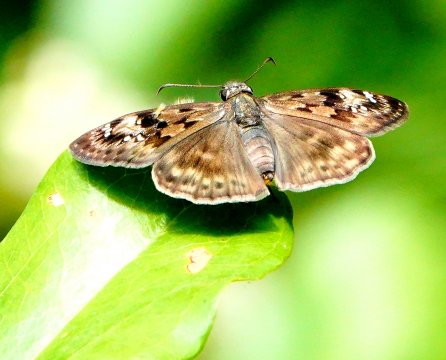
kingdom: Animalia
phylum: Arthropoda
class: Insecta
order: Lepidoptera
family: Hesperiidae
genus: Gesta
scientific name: Gesta
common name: Horace's Duskywing
